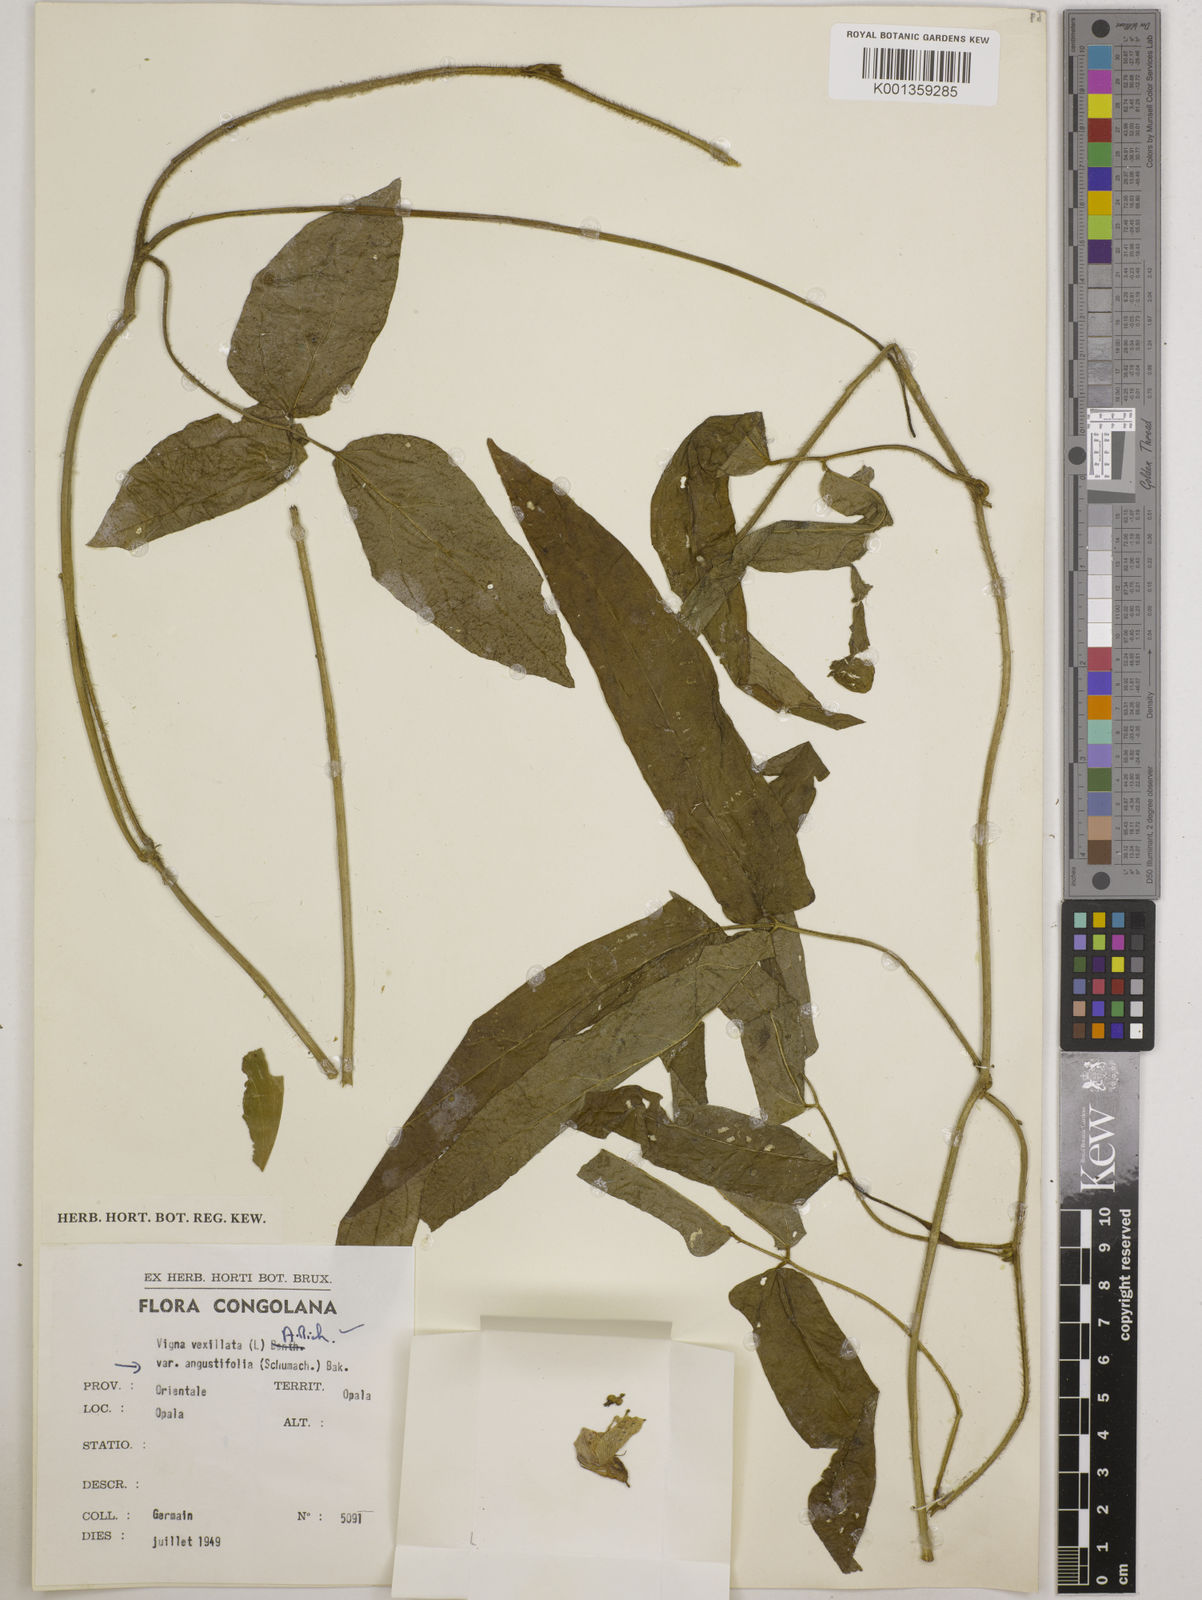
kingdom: Plantae
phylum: Tracheophyta
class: Magnoliopsida
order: Fabales
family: Fabaceae
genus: Vigna
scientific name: Vigna vexillata
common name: Zombi pea
